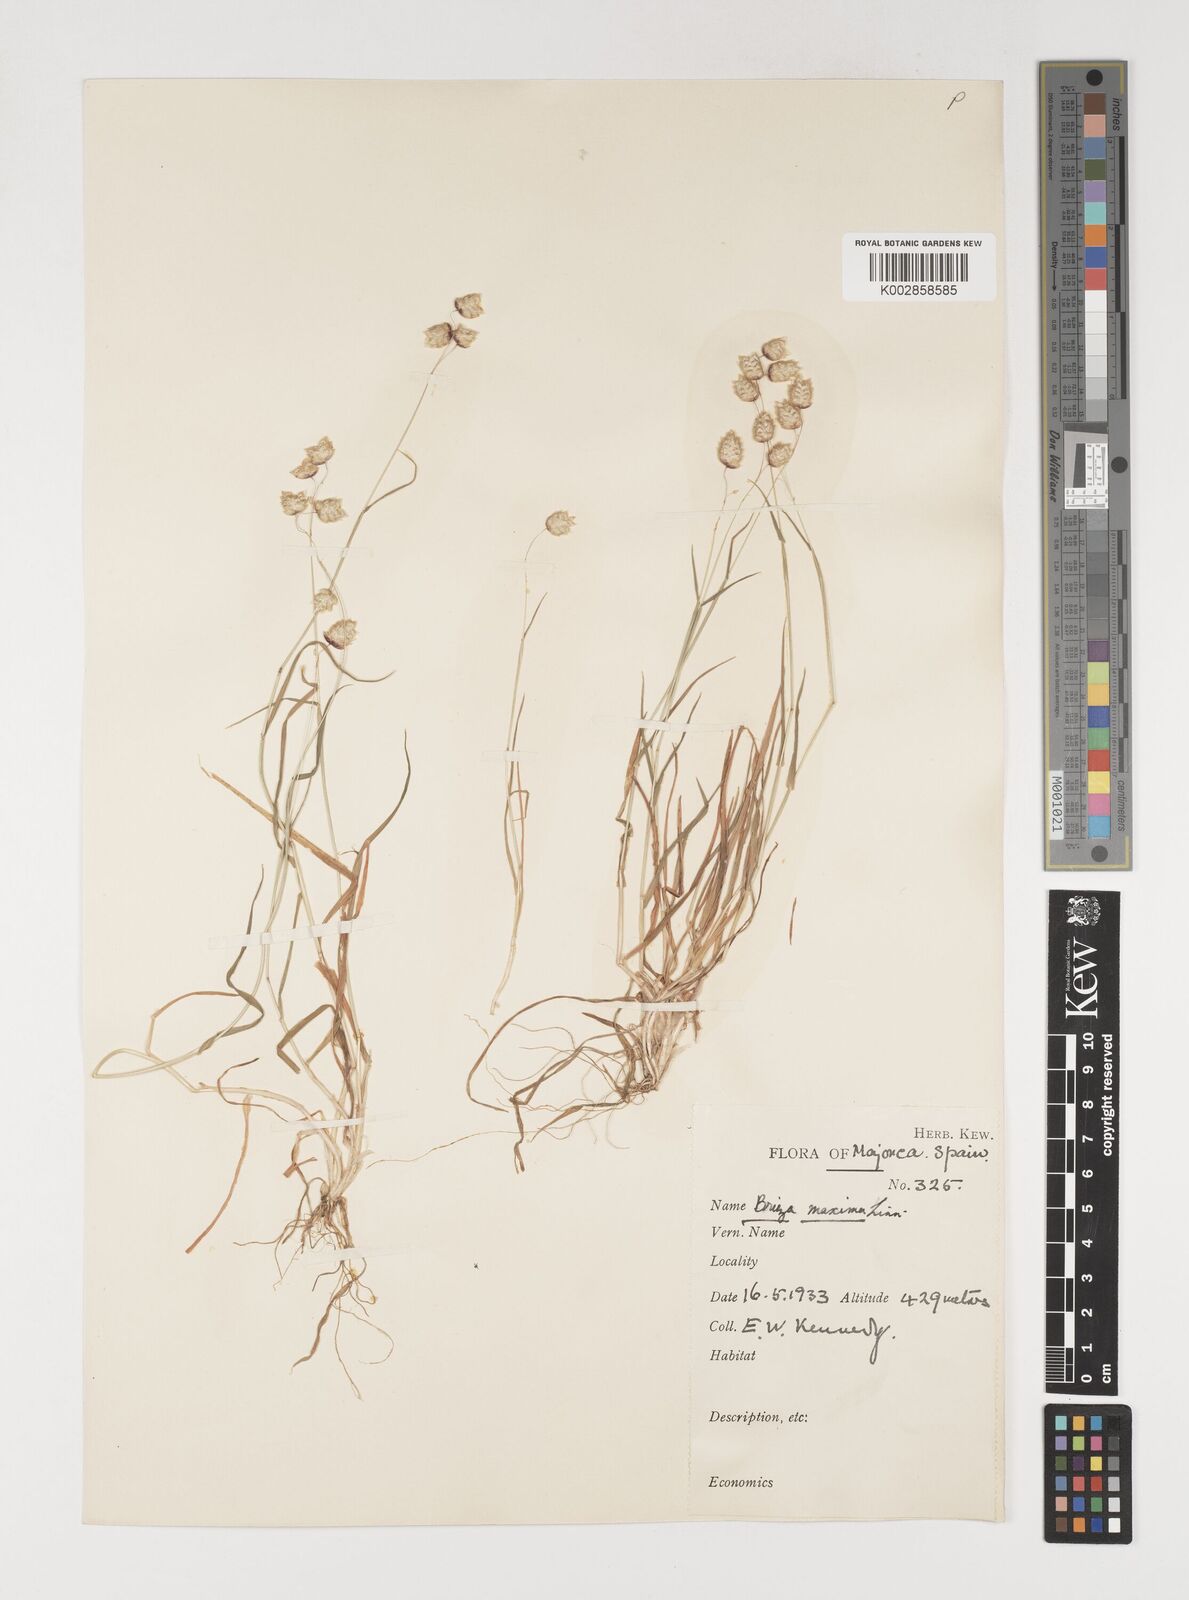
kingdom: Plantae
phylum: Tracheophyta
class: Liliopsida
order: Poales
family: Poaceae
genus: Briza
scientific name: Briza maxima
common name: Big quakinggrass
